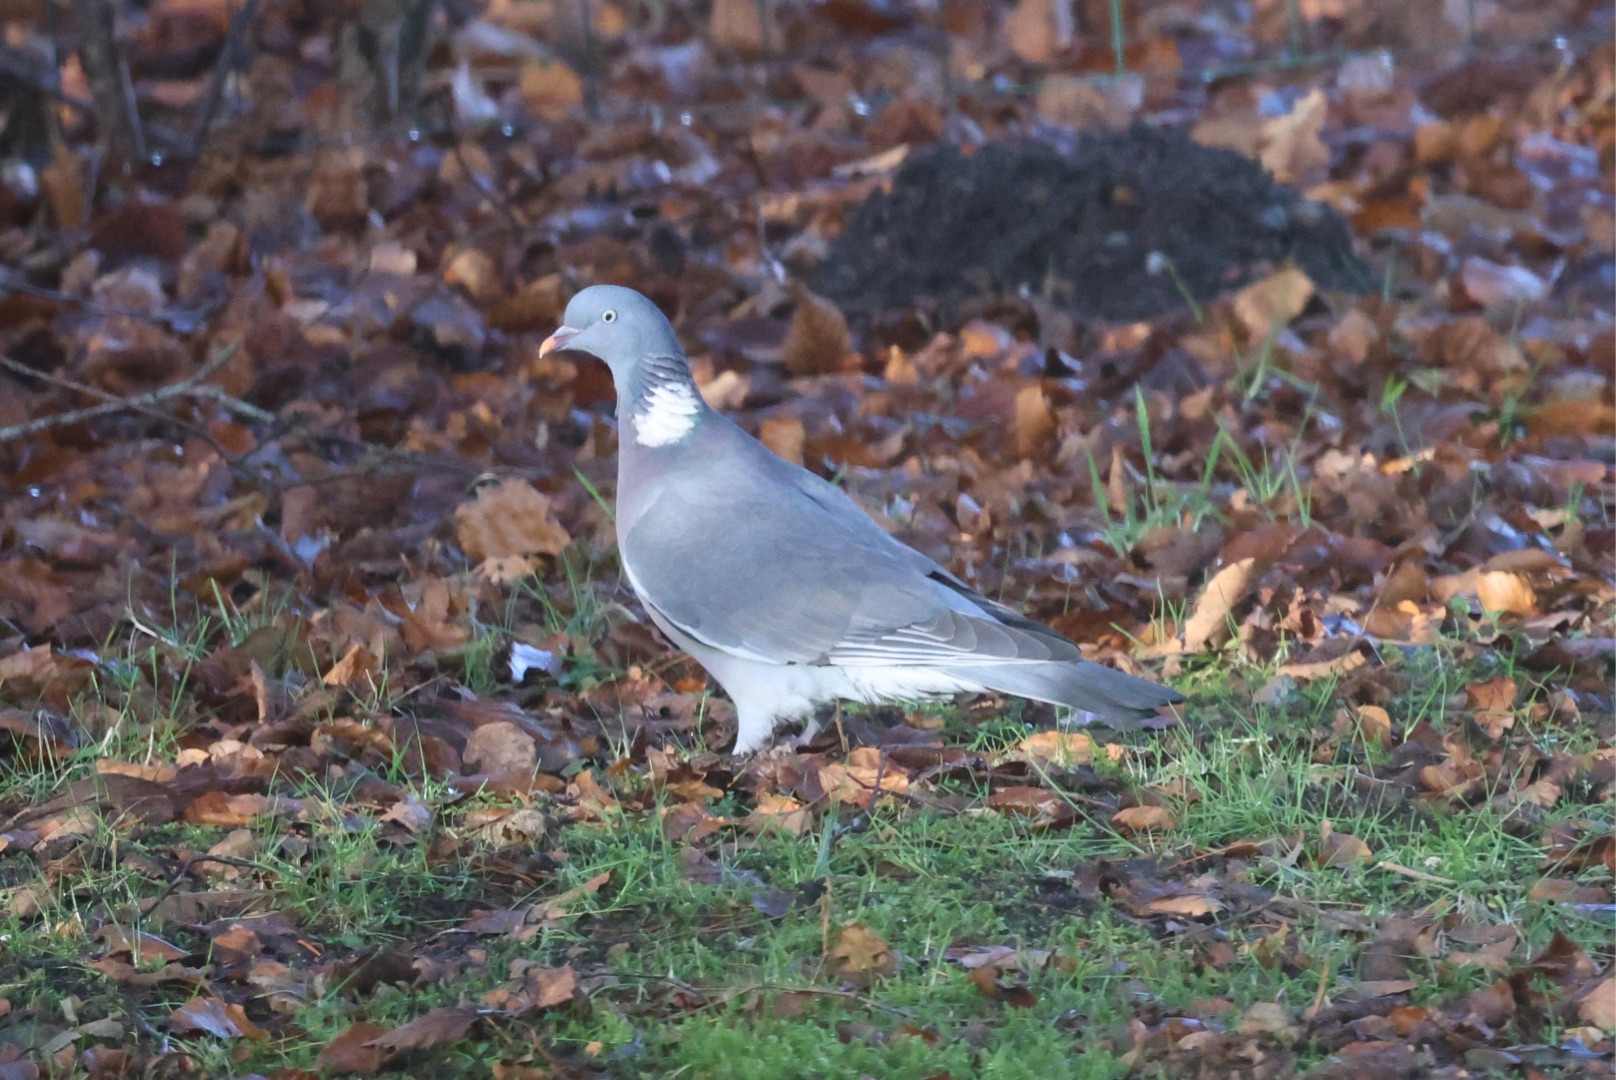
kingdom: Animalia
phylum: Chordata
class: Aves
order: Columbiformes
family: Columbidae
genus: Columba
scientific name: Columba palumbus
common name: Ringdue
